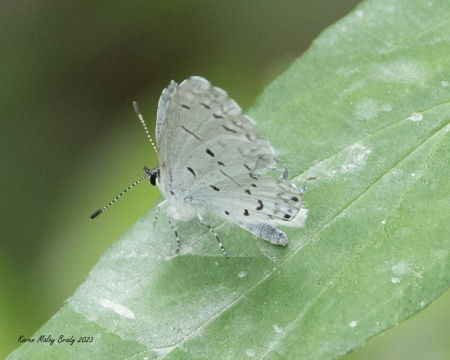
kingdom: Animalia
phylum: Arthropoda
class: Insecta
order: Lepidoptera
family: Lycaenidae
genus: Cyaniris
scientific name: Cyaniris neglecta
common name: Summer Azure
